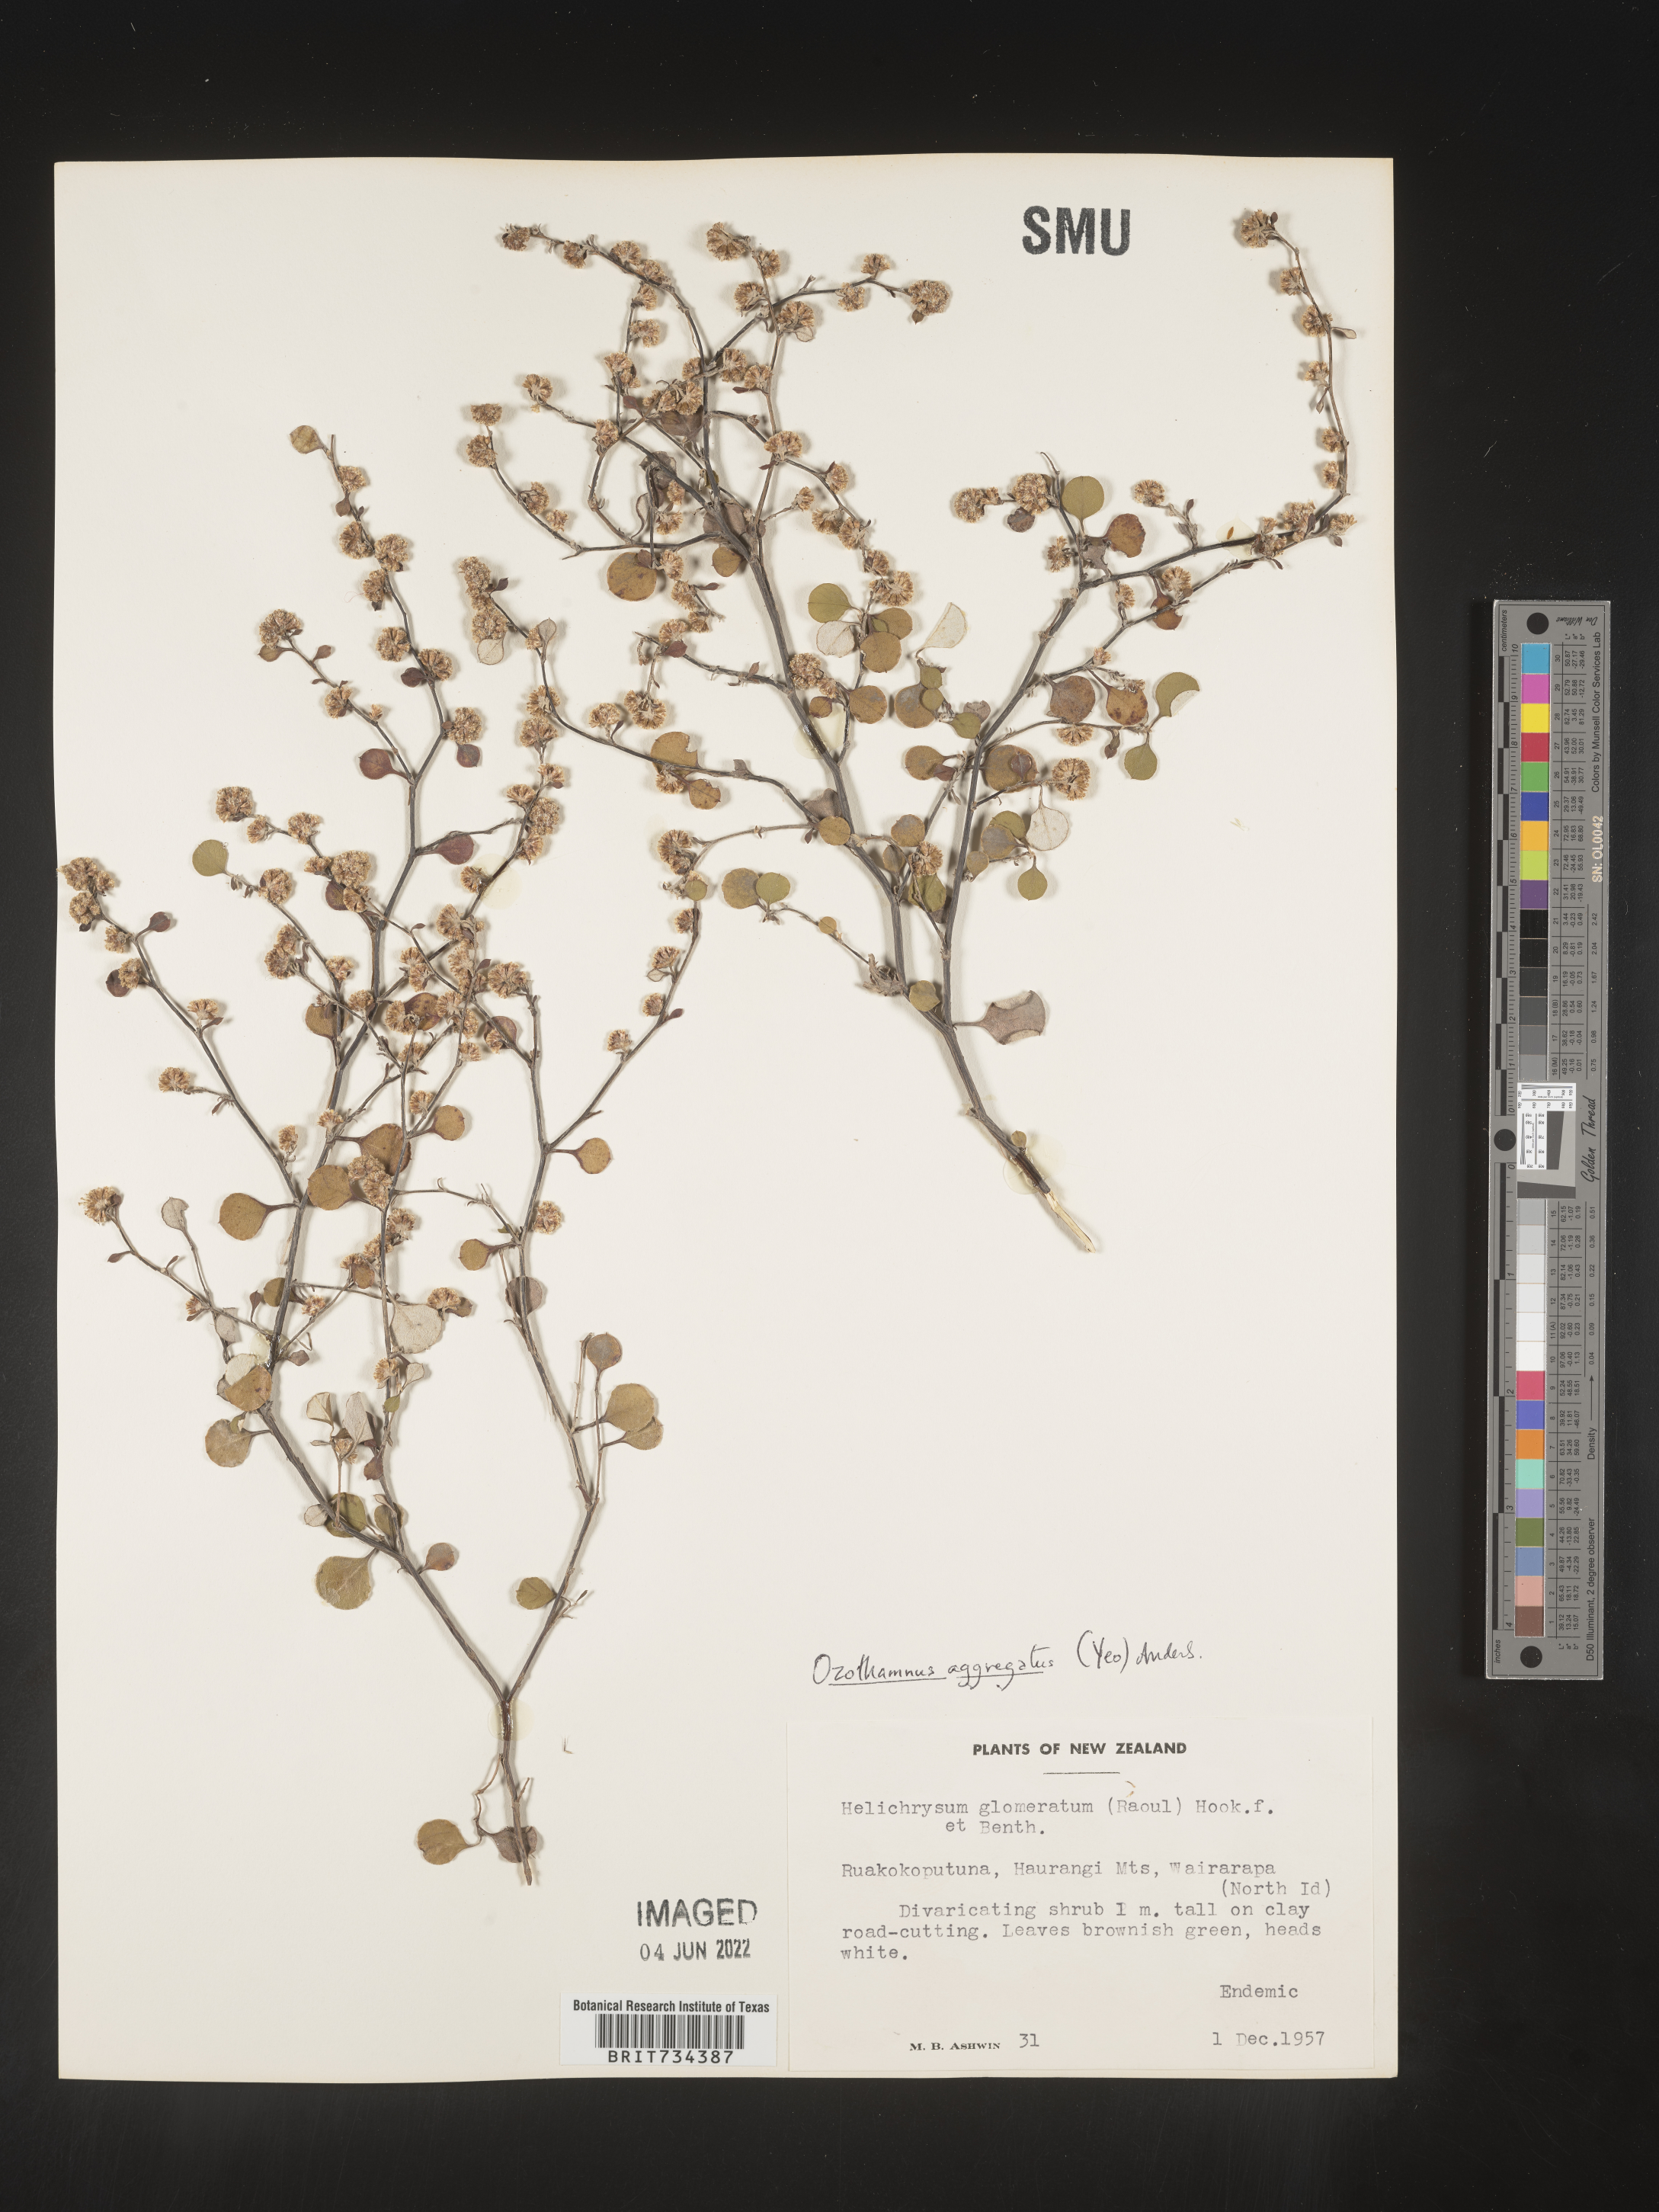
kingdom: Plantae
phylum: Tracheophyta
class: Magnoliopsida
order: Asterales
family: Asteraceae
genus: Ozothamnus
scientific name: Ozothamnus
